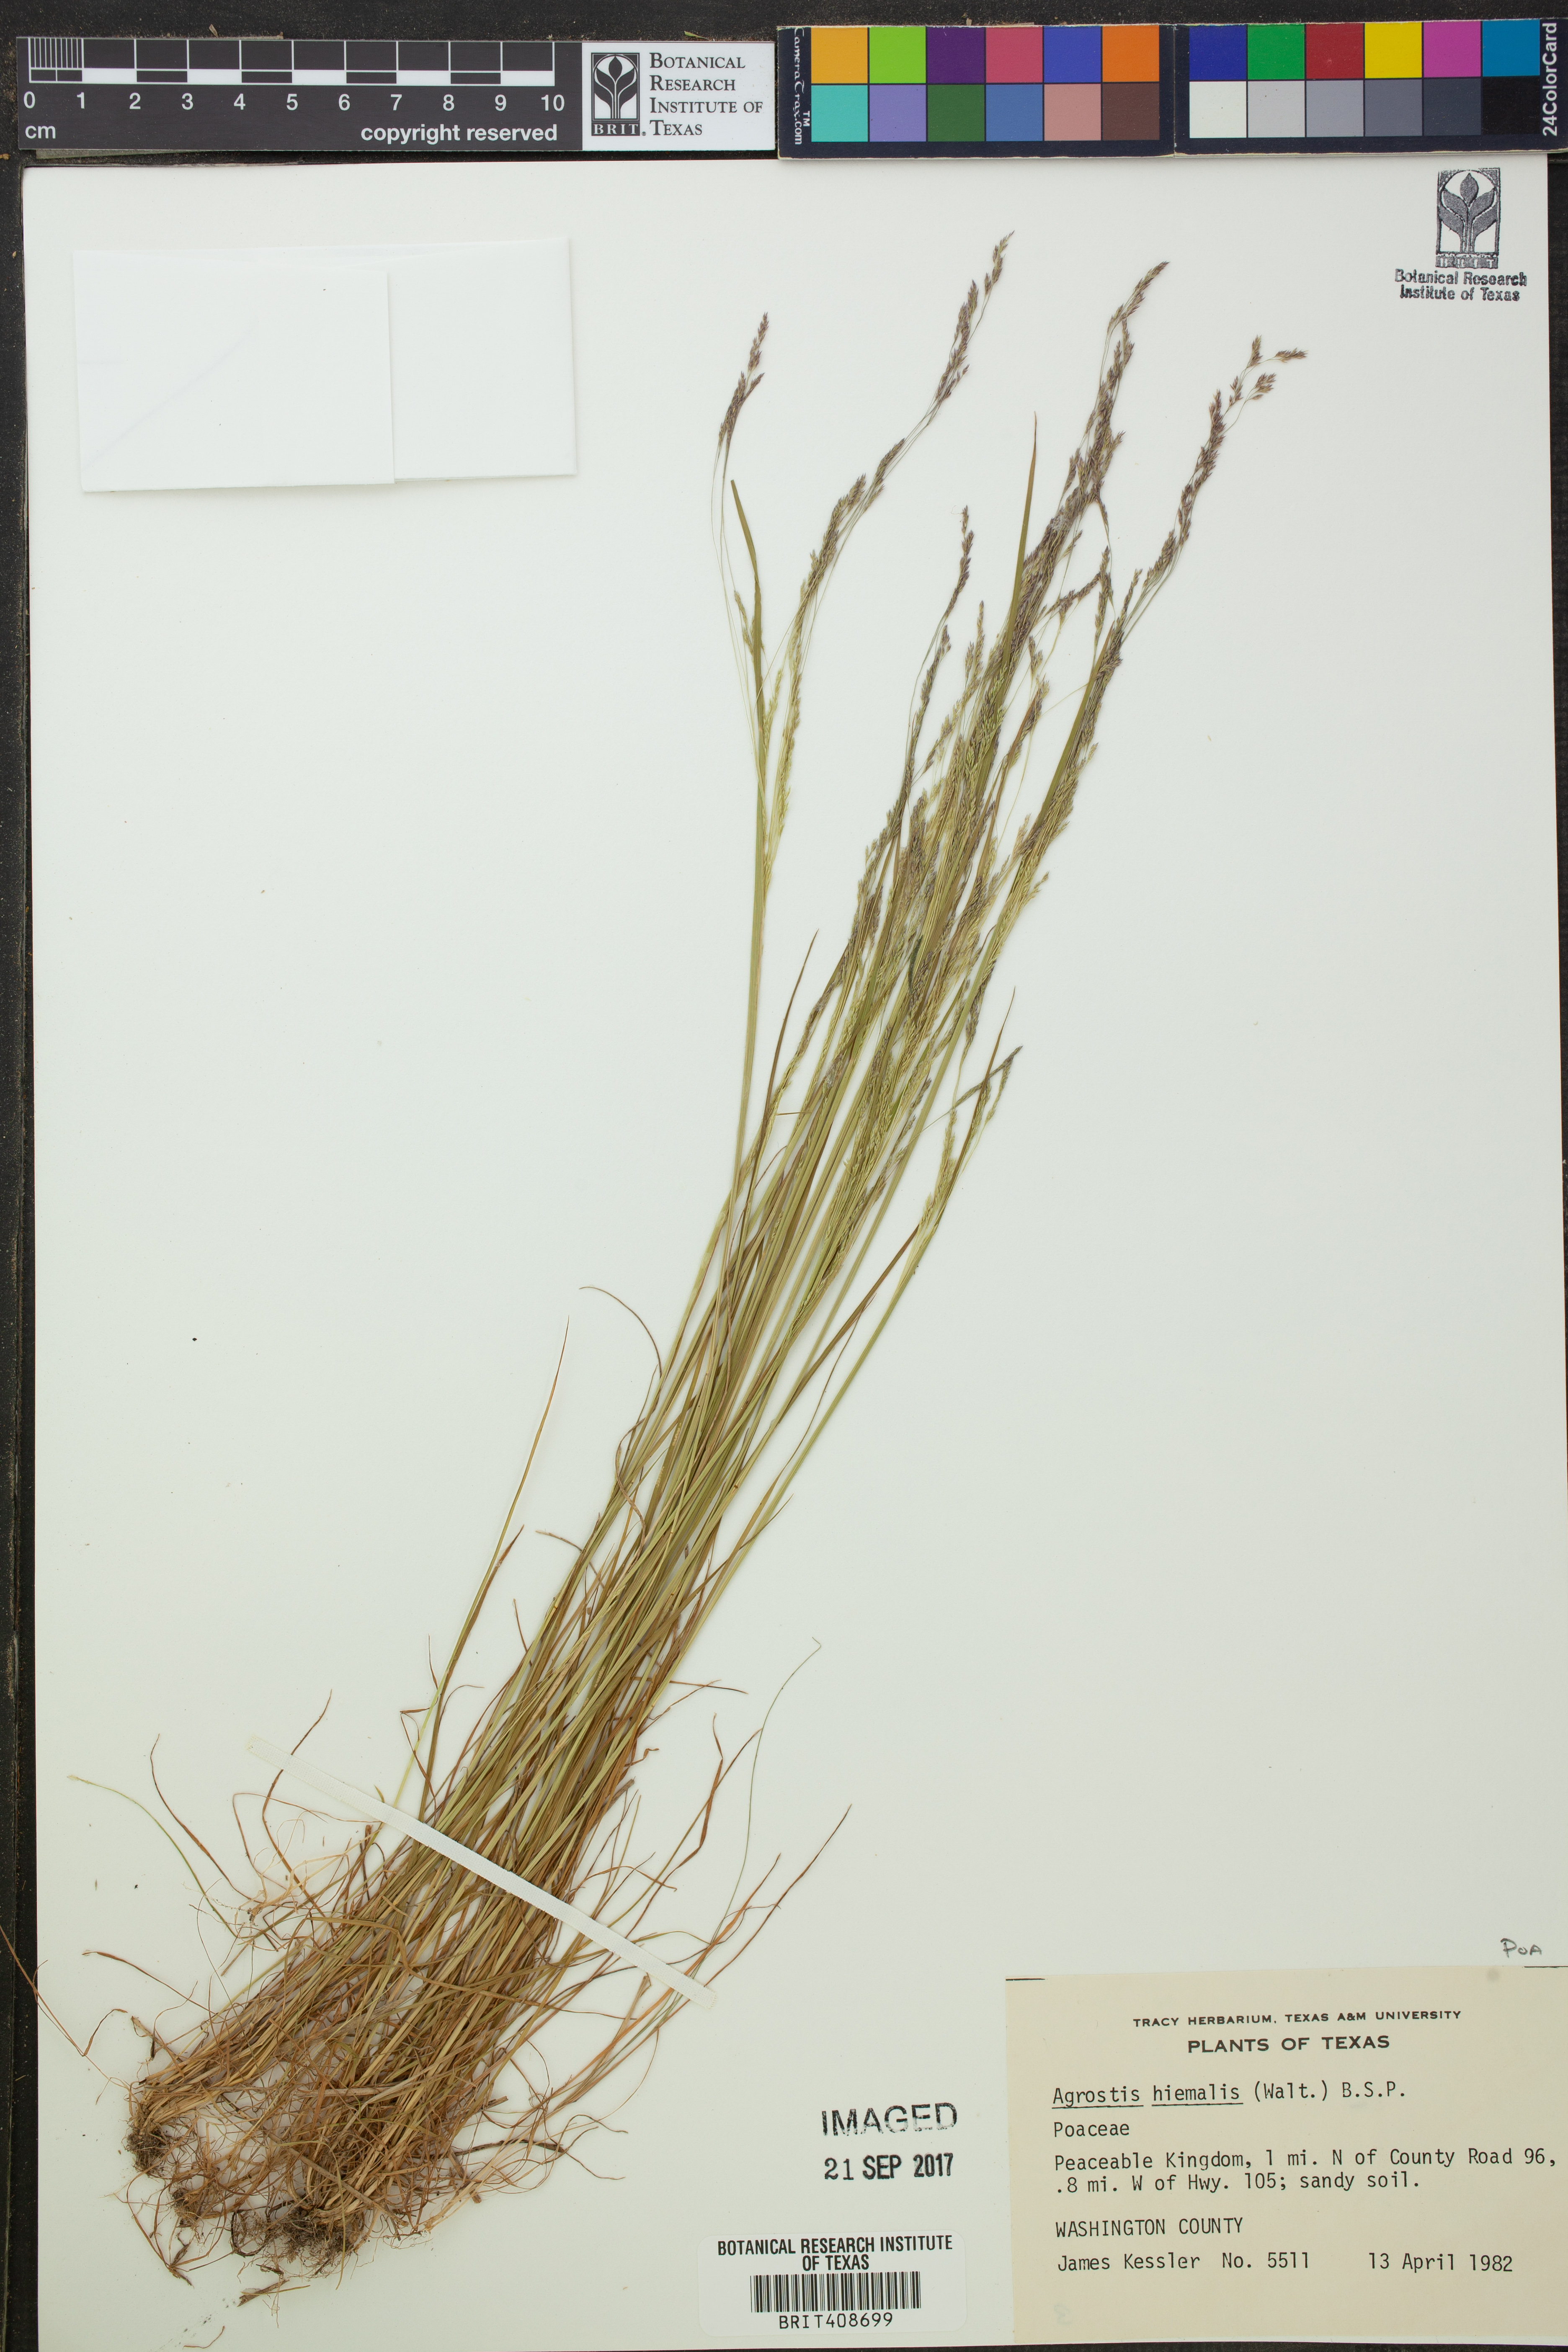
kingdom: Plantae
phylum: Tracheophyta
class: Liliopsida
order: Poales
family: Poaceae
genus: Agrostis
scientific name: Agrostis hyemalis
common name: Small bent
